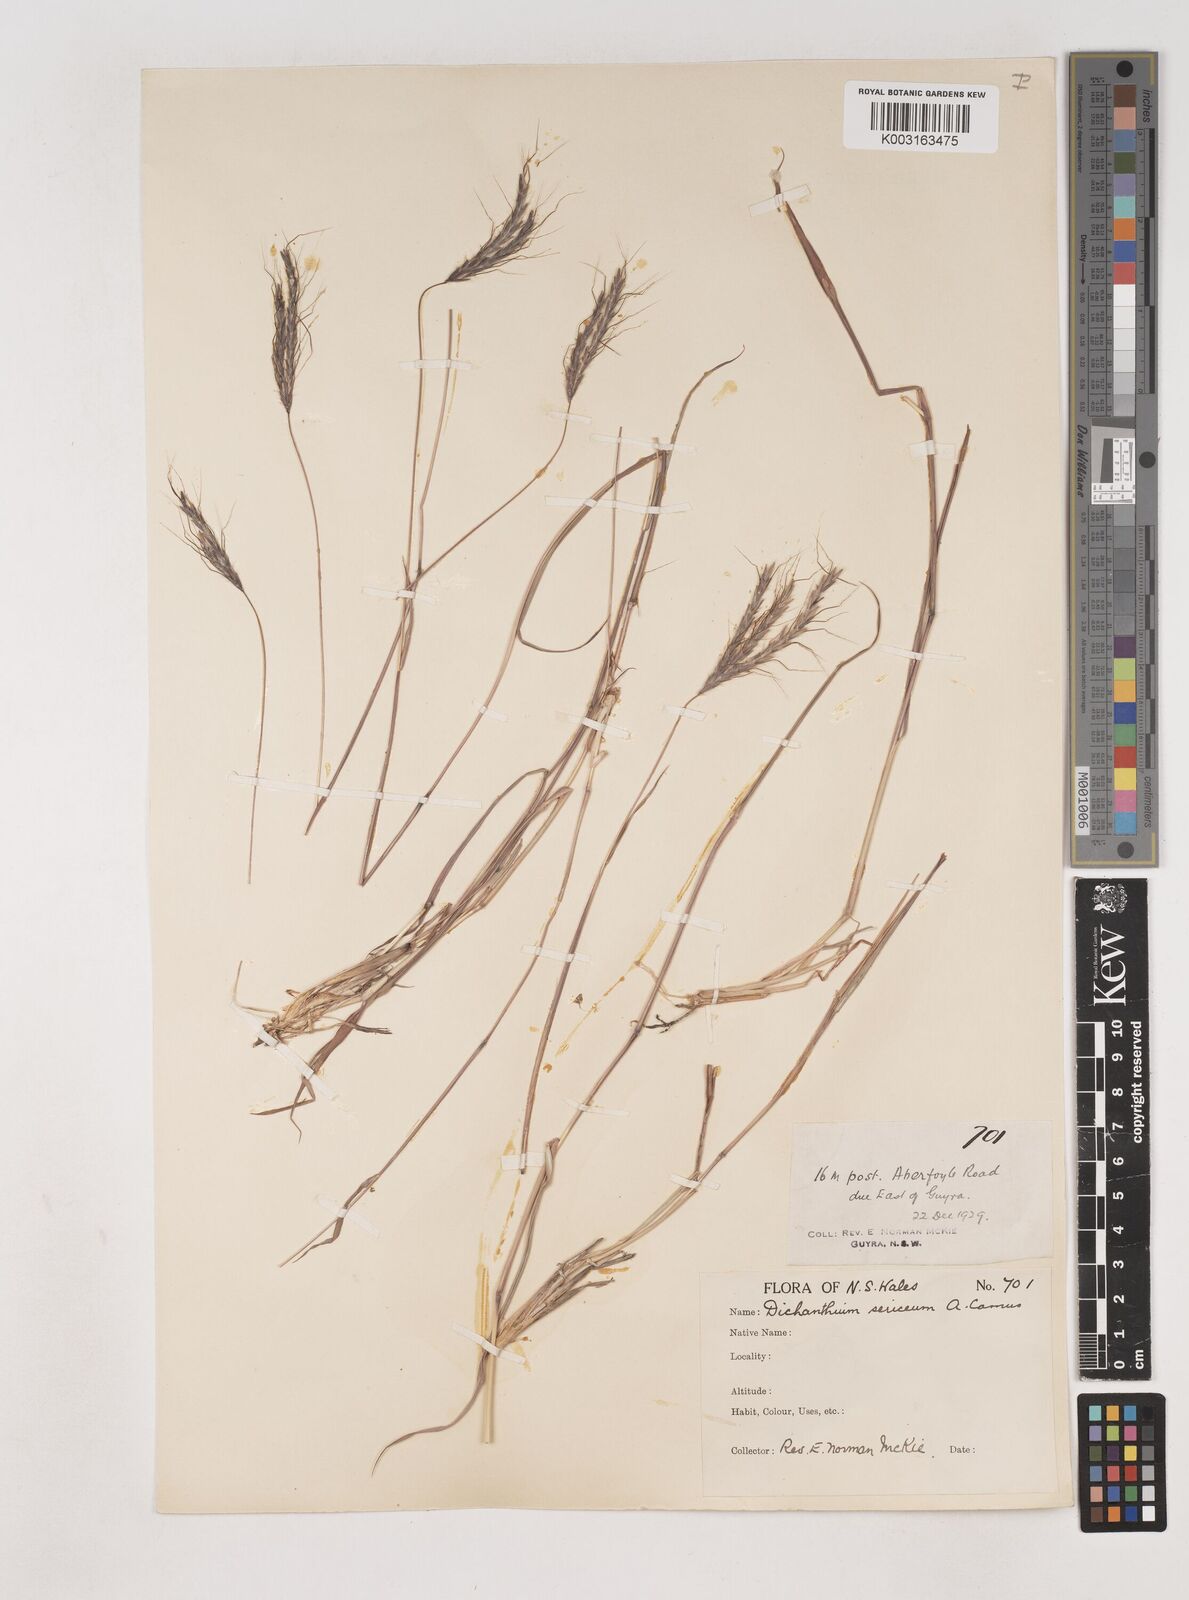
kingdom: Plantae
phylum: Tracheophyta
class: Liliopsida
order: Poales
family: Poaceae
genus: Dichanthium
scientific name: Dichanthium setosum
